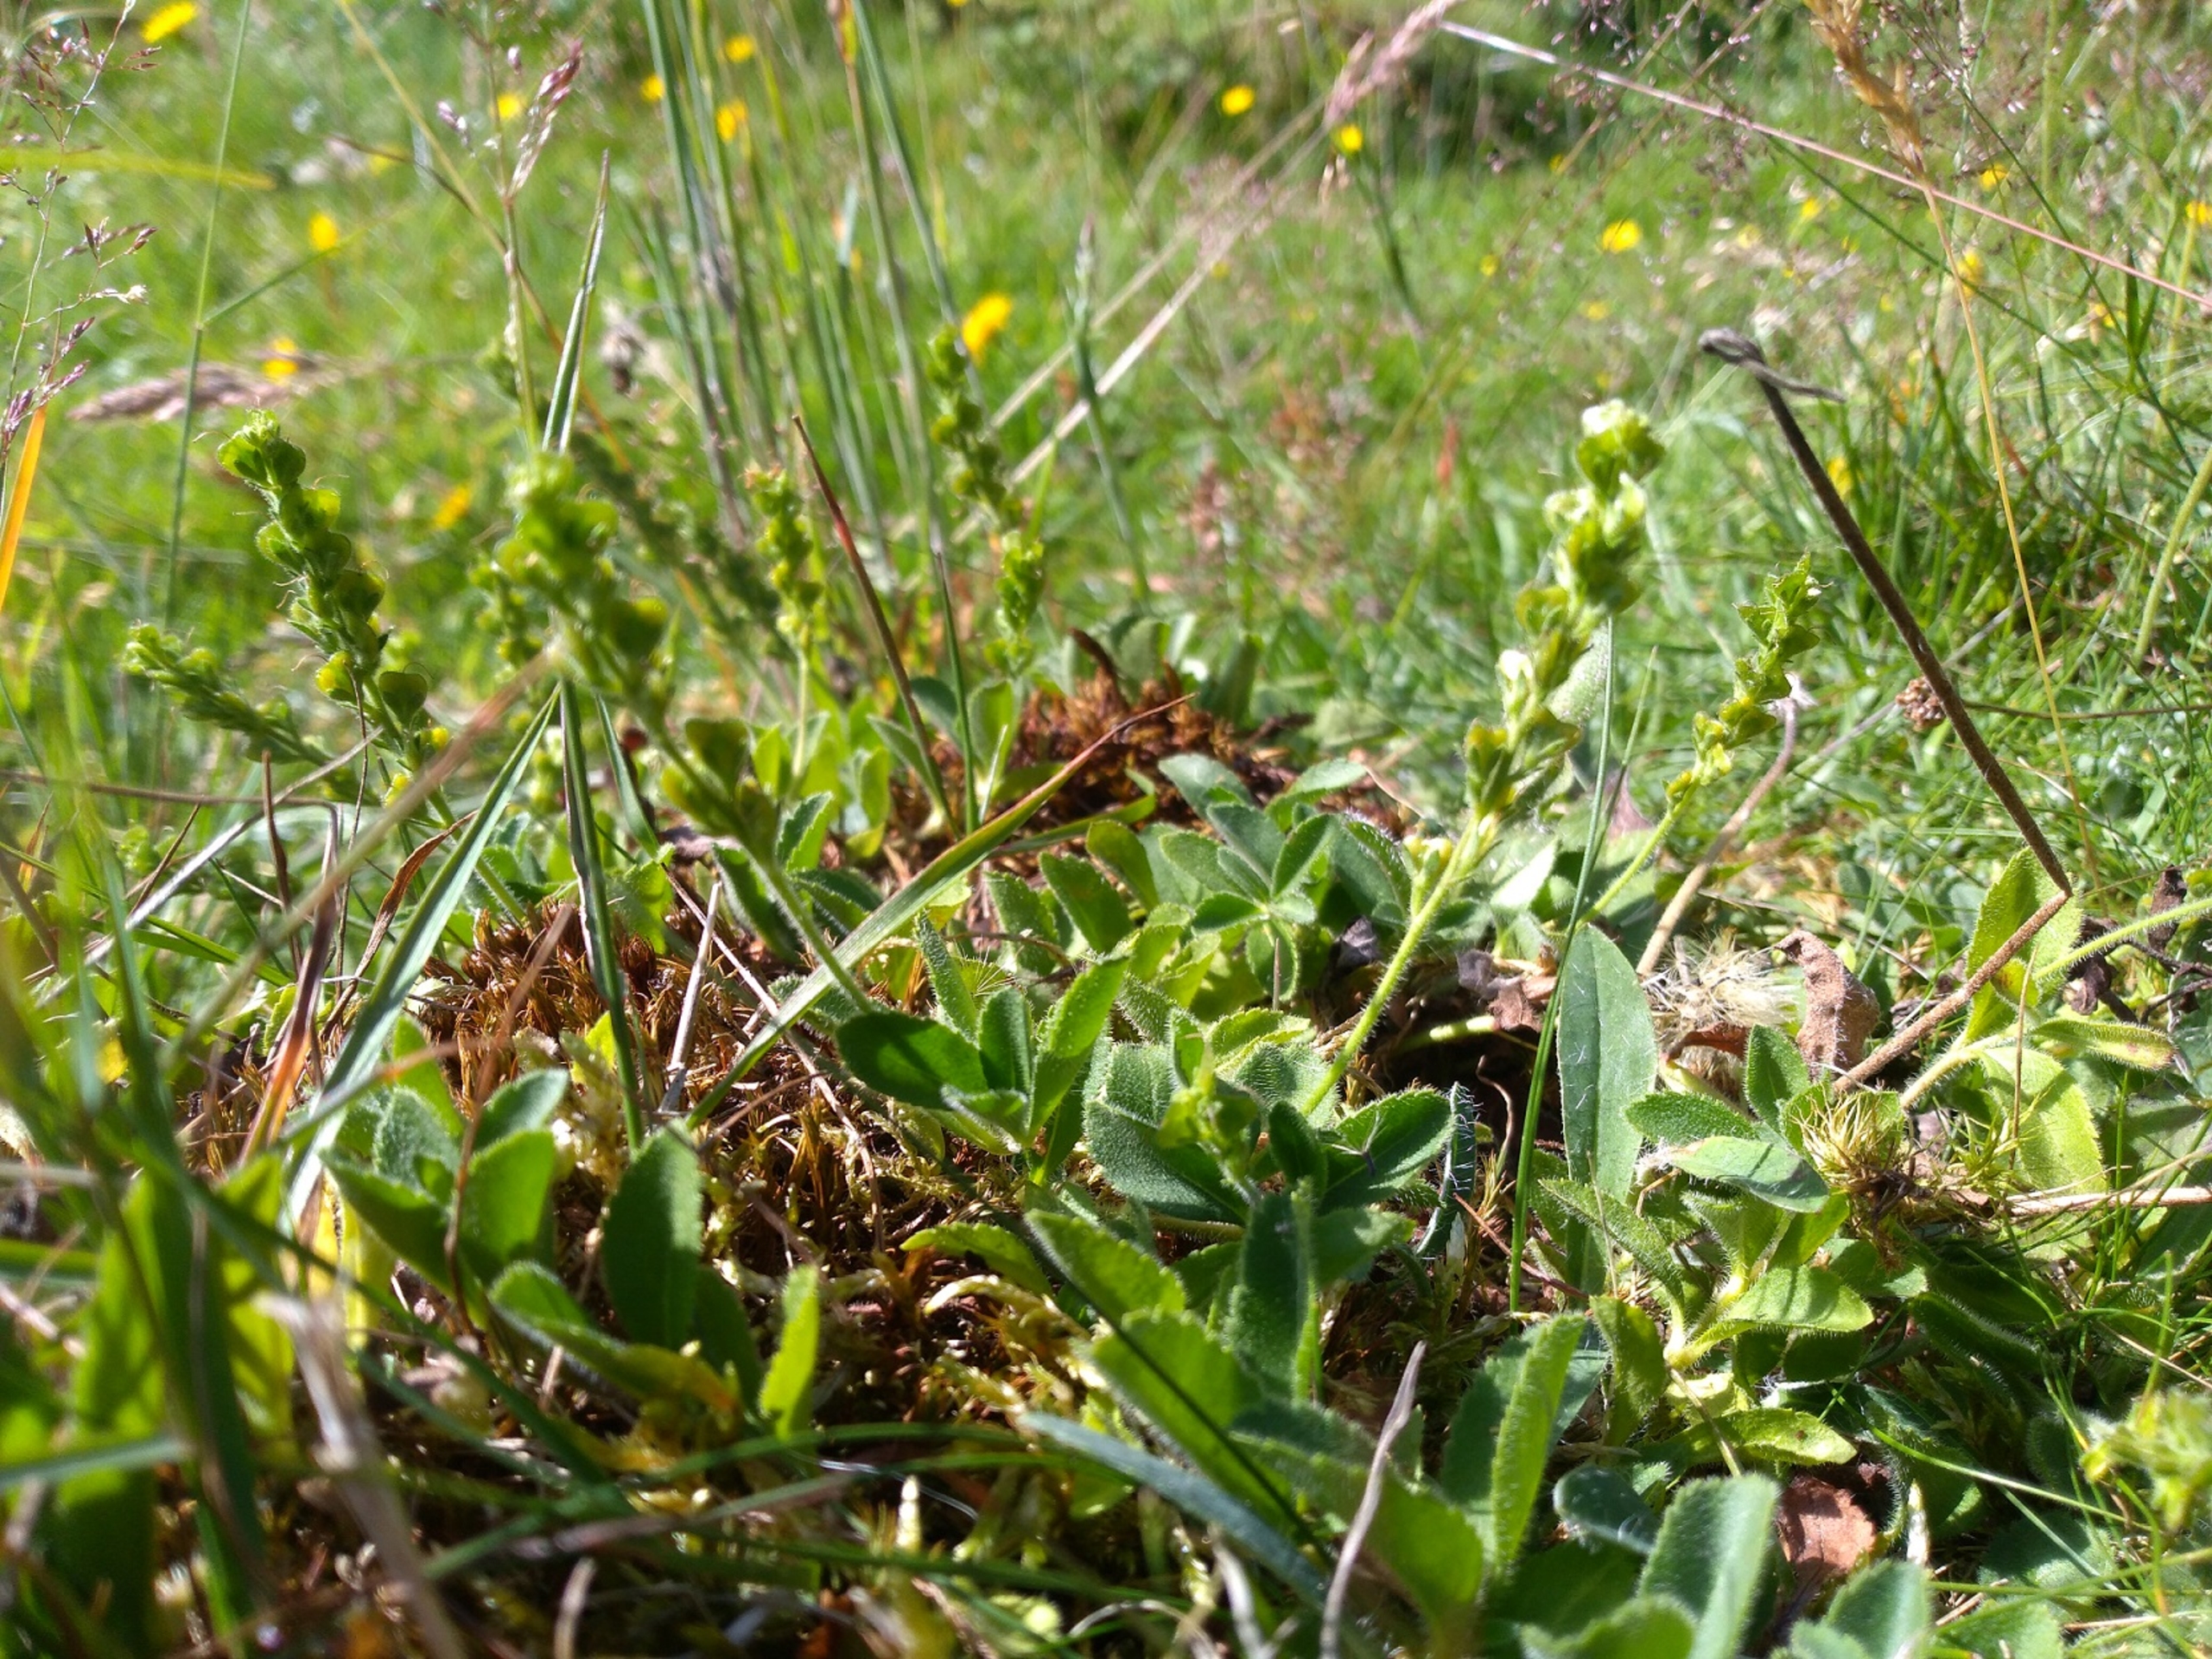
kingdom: Plantae
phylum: Tracheophyta
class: Magnoliopsida
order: Lamiales
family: Plantaginaceae
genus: Veronica
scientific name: Veronica officinalis
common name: Læge-ærenpris
